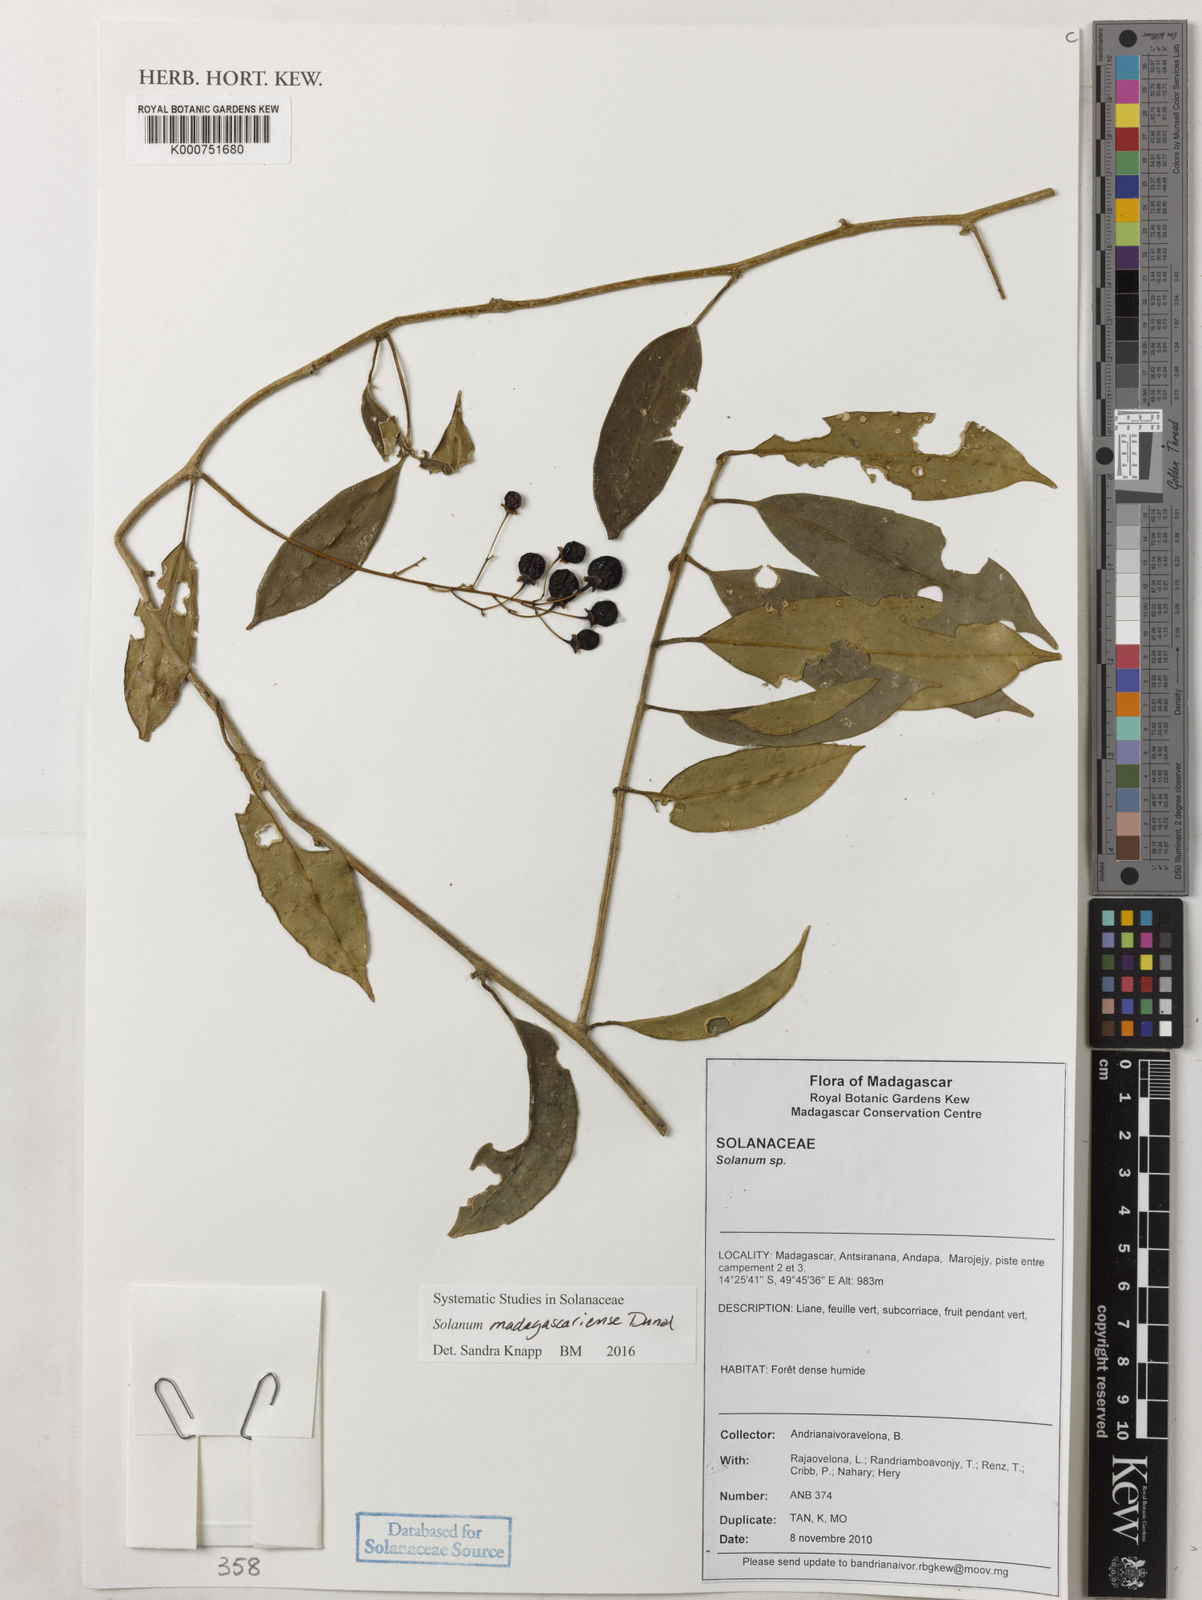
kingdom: Plantae
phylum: Tracheophyta
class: Magnoliopsida
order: Solanales
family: Solanaceae
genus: Solanum
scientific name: Solanum madagascariense
